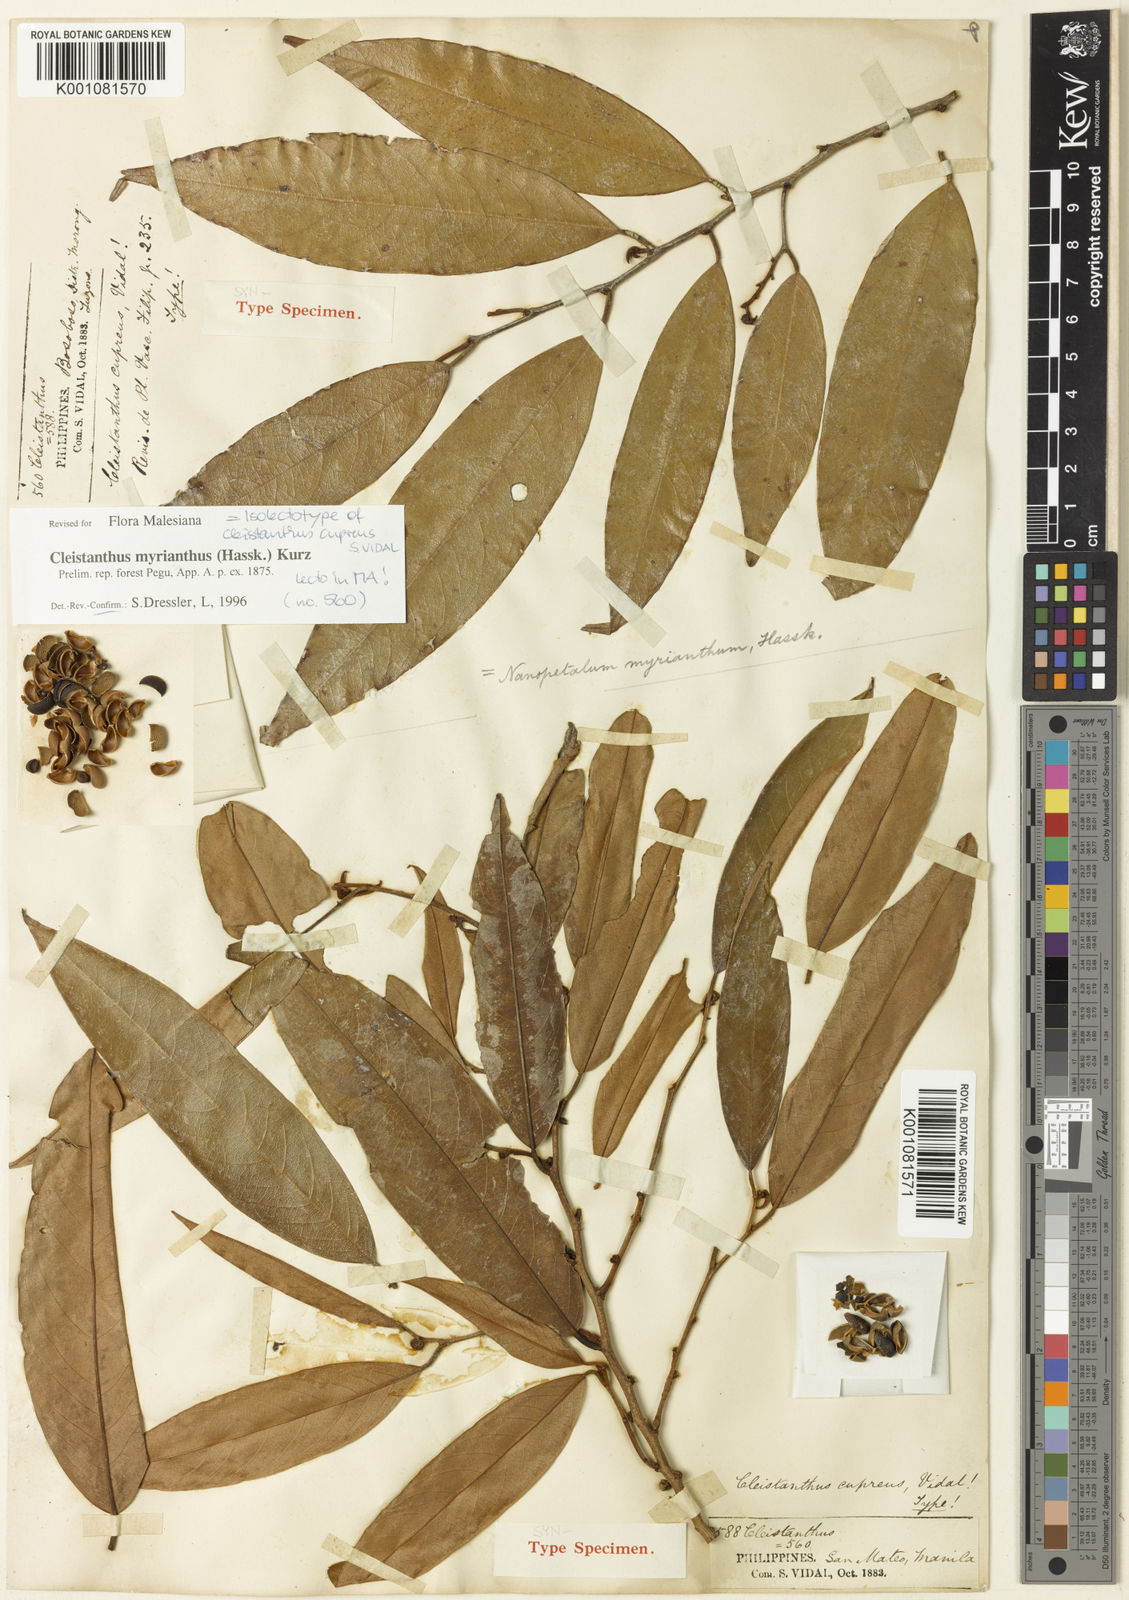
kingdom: Plantae
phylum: Tracheophyta
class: Magnoliopsida
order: Malpighiales
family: Phyllanthaceae
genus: Cleistanthus
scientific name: Cleistanthus oblongifolius
